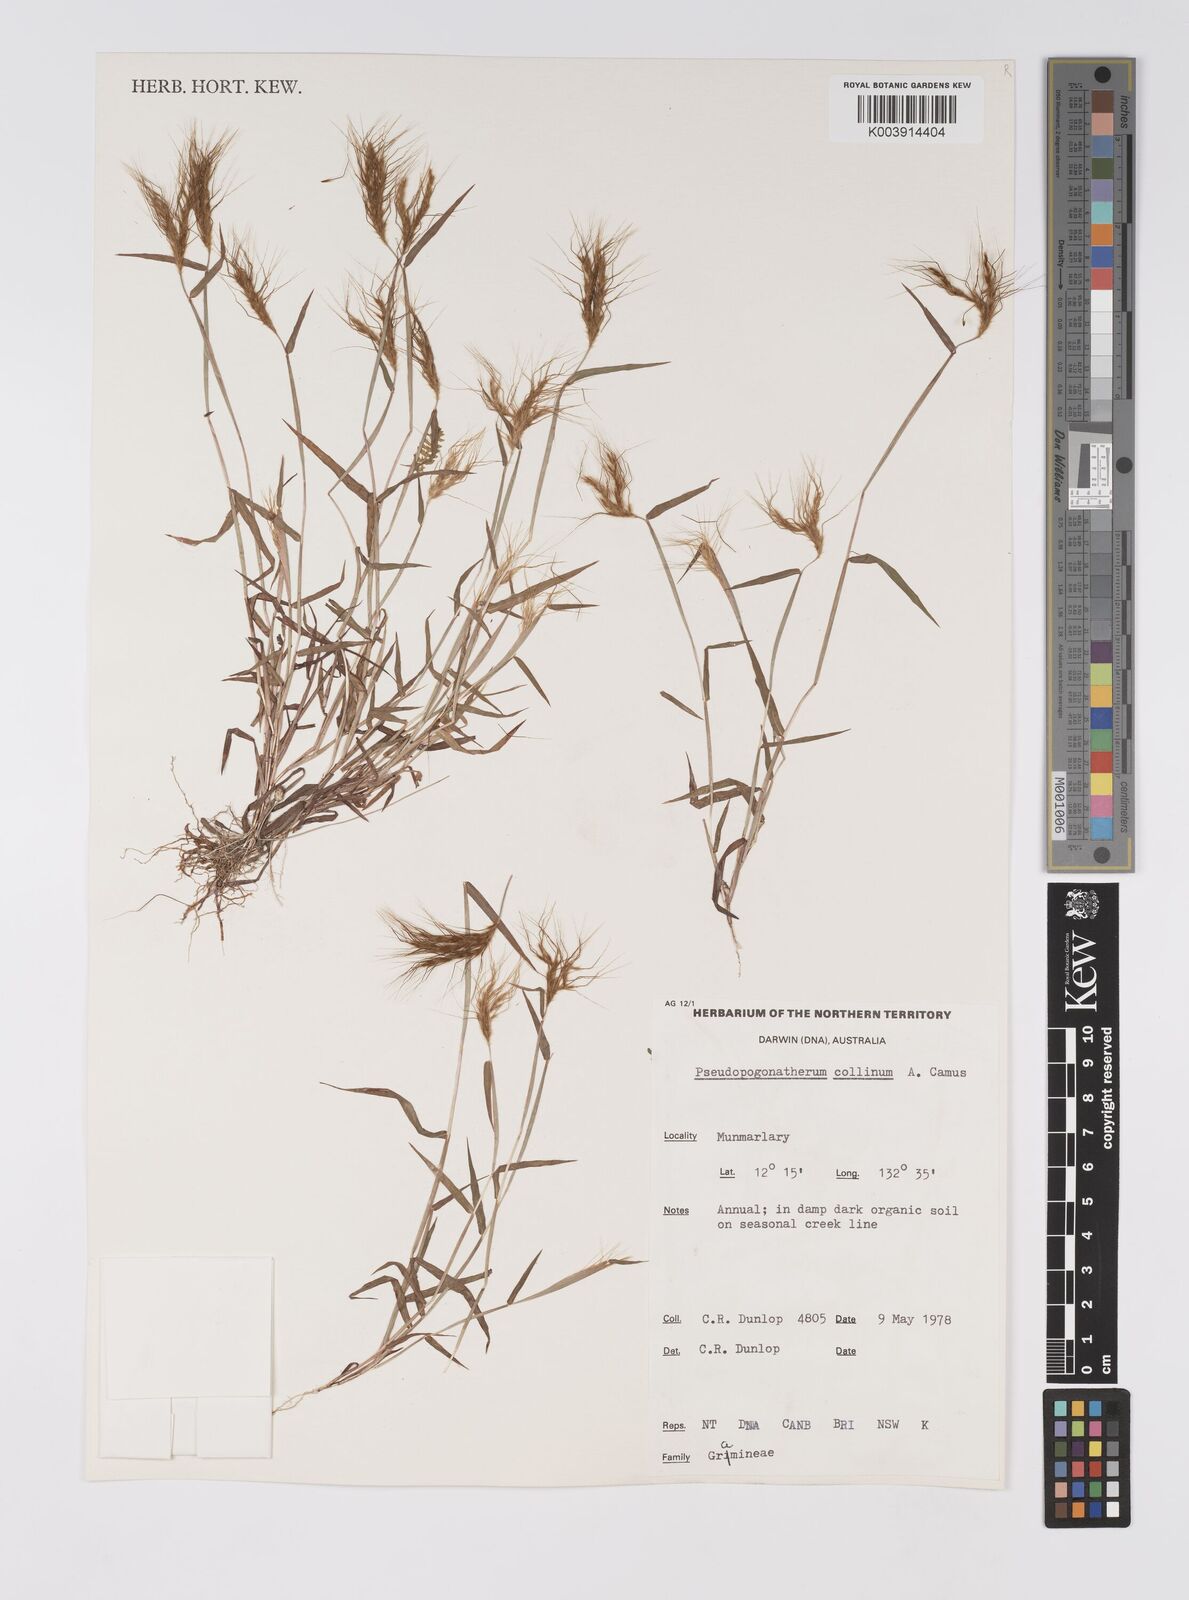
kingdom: Plantae
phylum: Tracheophyta
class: Liliopsida
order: Poales
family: Poaceae
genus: Pseudopogonatherum
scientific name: Pseudopogonatherum contortum
